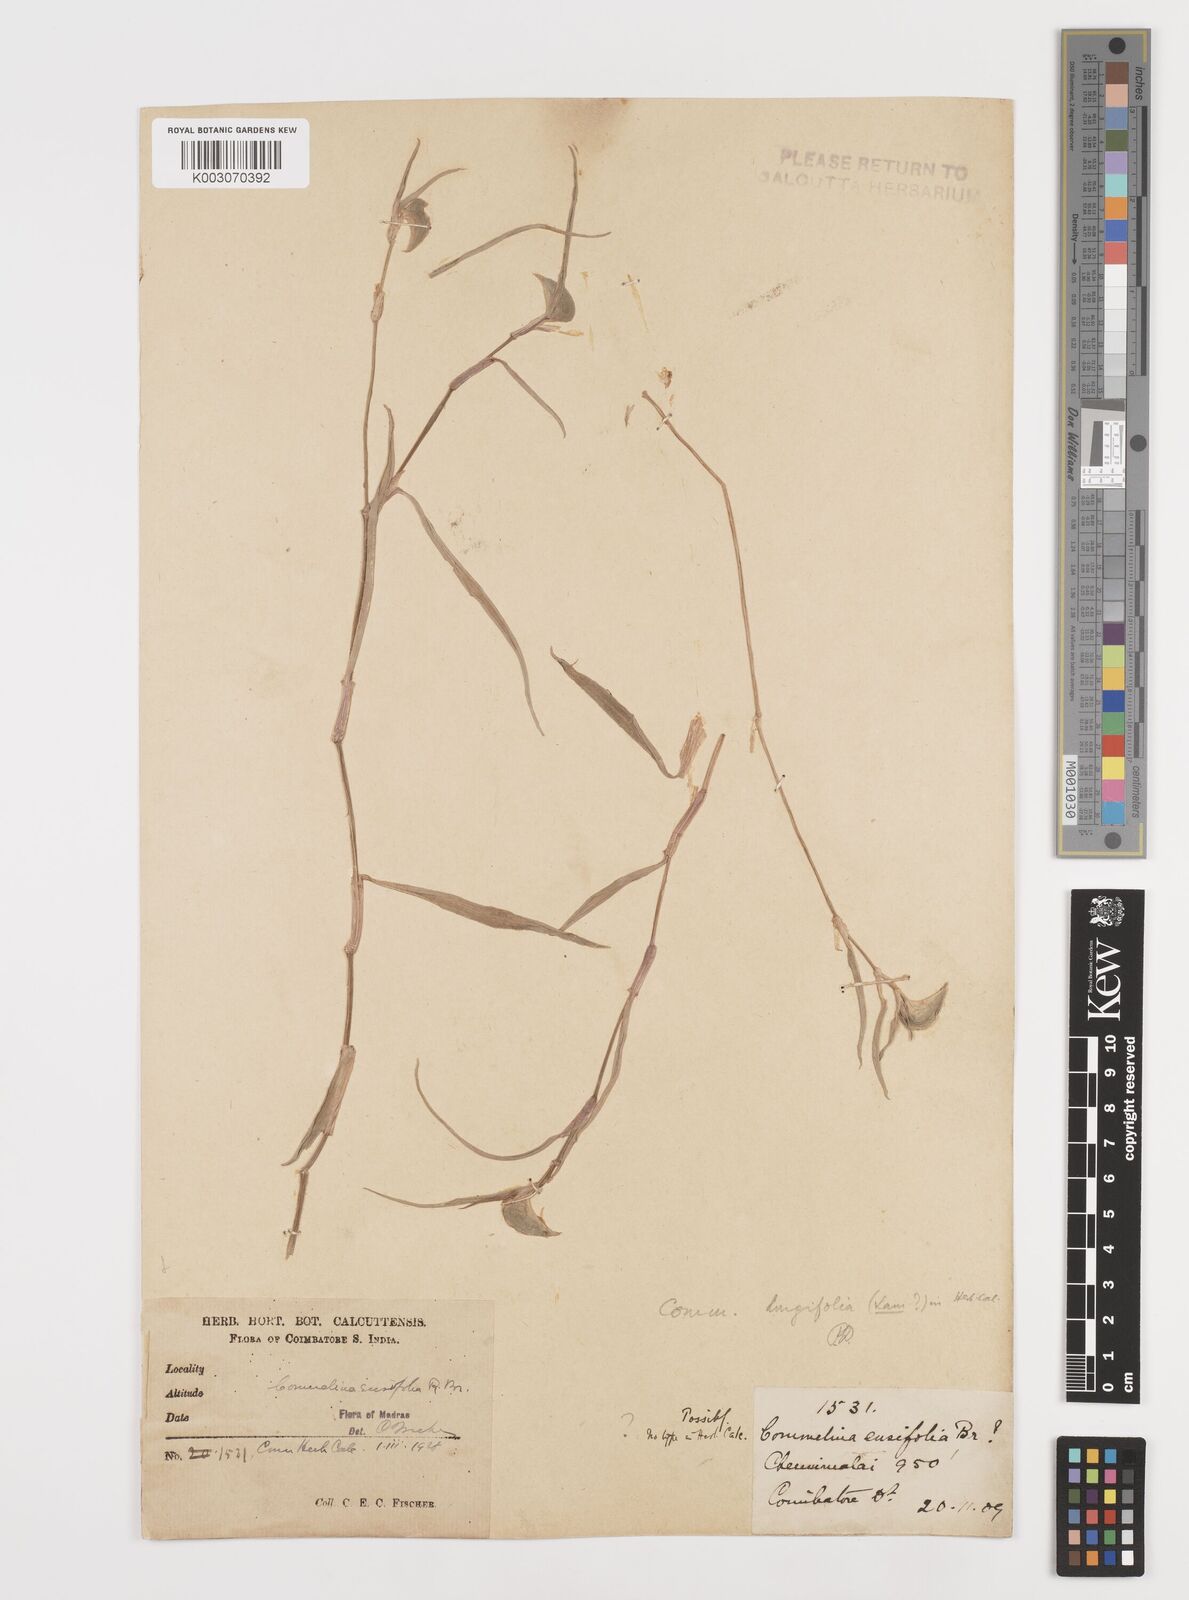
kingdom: Plantae
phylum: Tracheophyta
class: Liliopsida
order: Commelinales
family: Commelinaceae
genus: Commelina
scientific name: Commelina ensifolia
